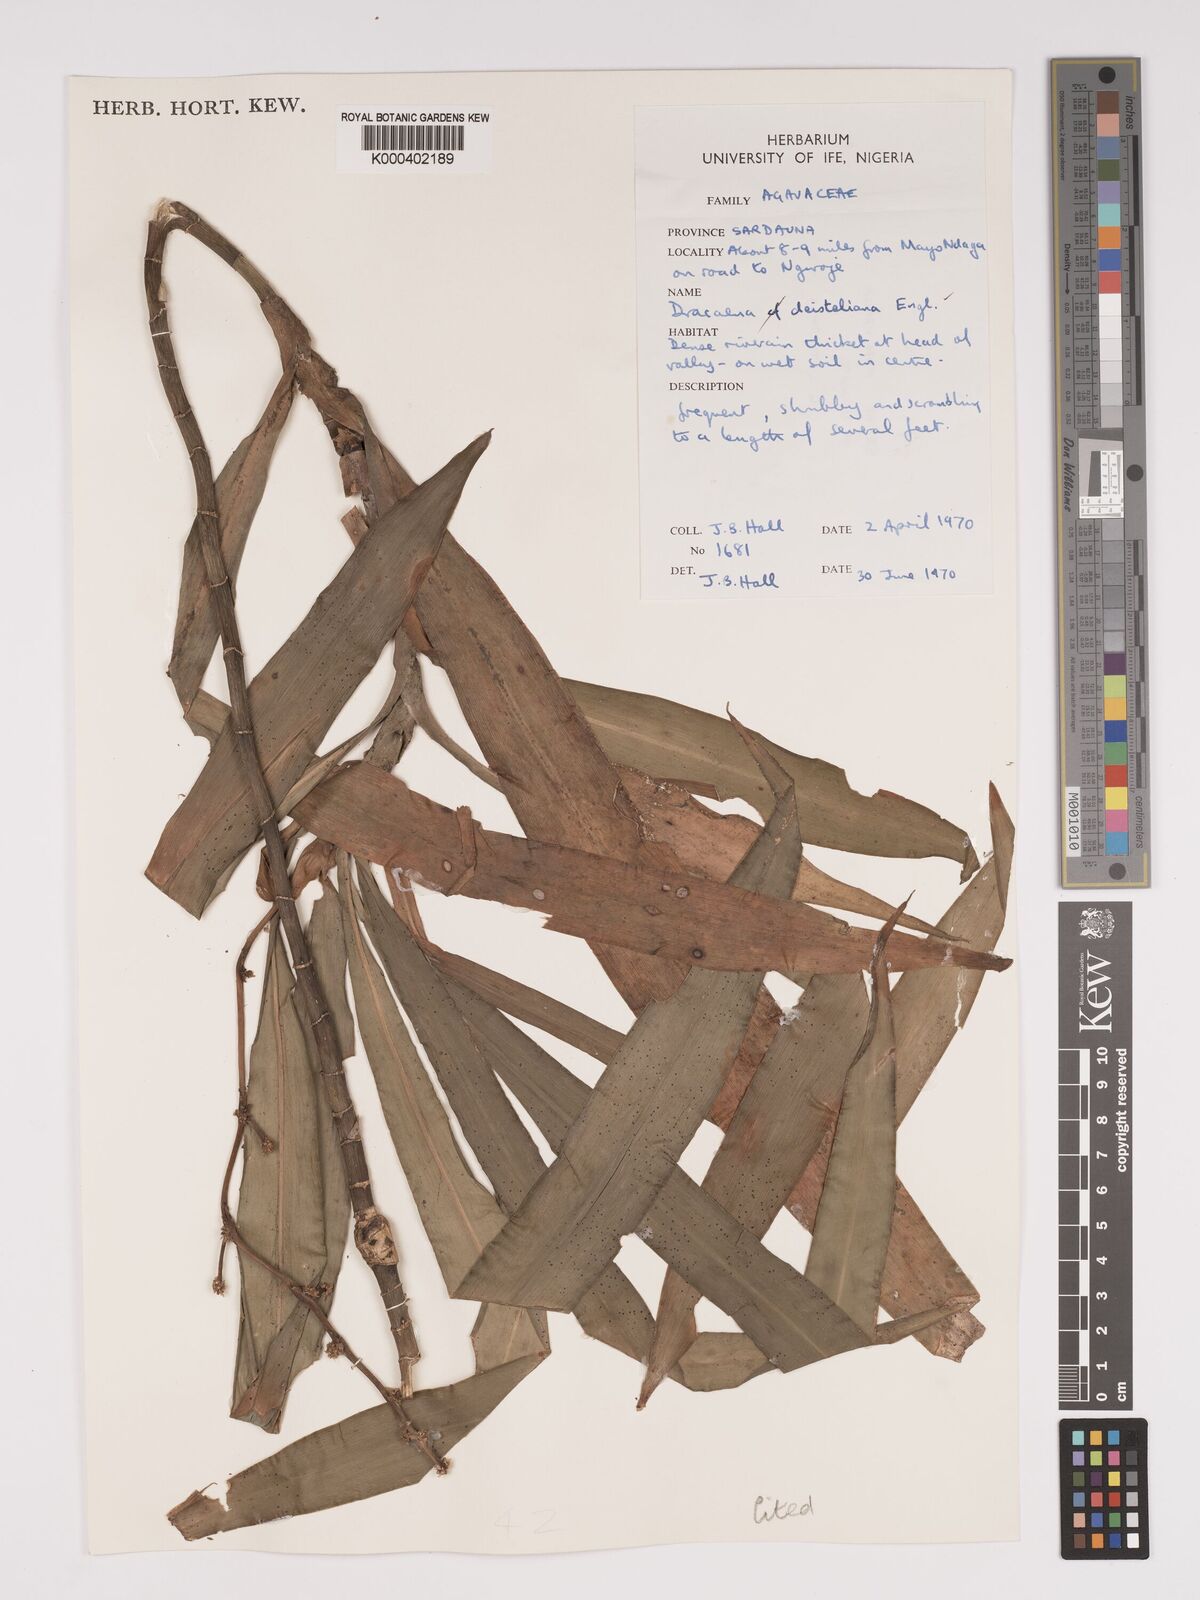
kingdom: Plantae
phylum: Tracheophyta
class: Liliopsida
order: Asparagales
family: Asparagaceae
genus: Dracaena
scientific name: Dracaena fragrans
